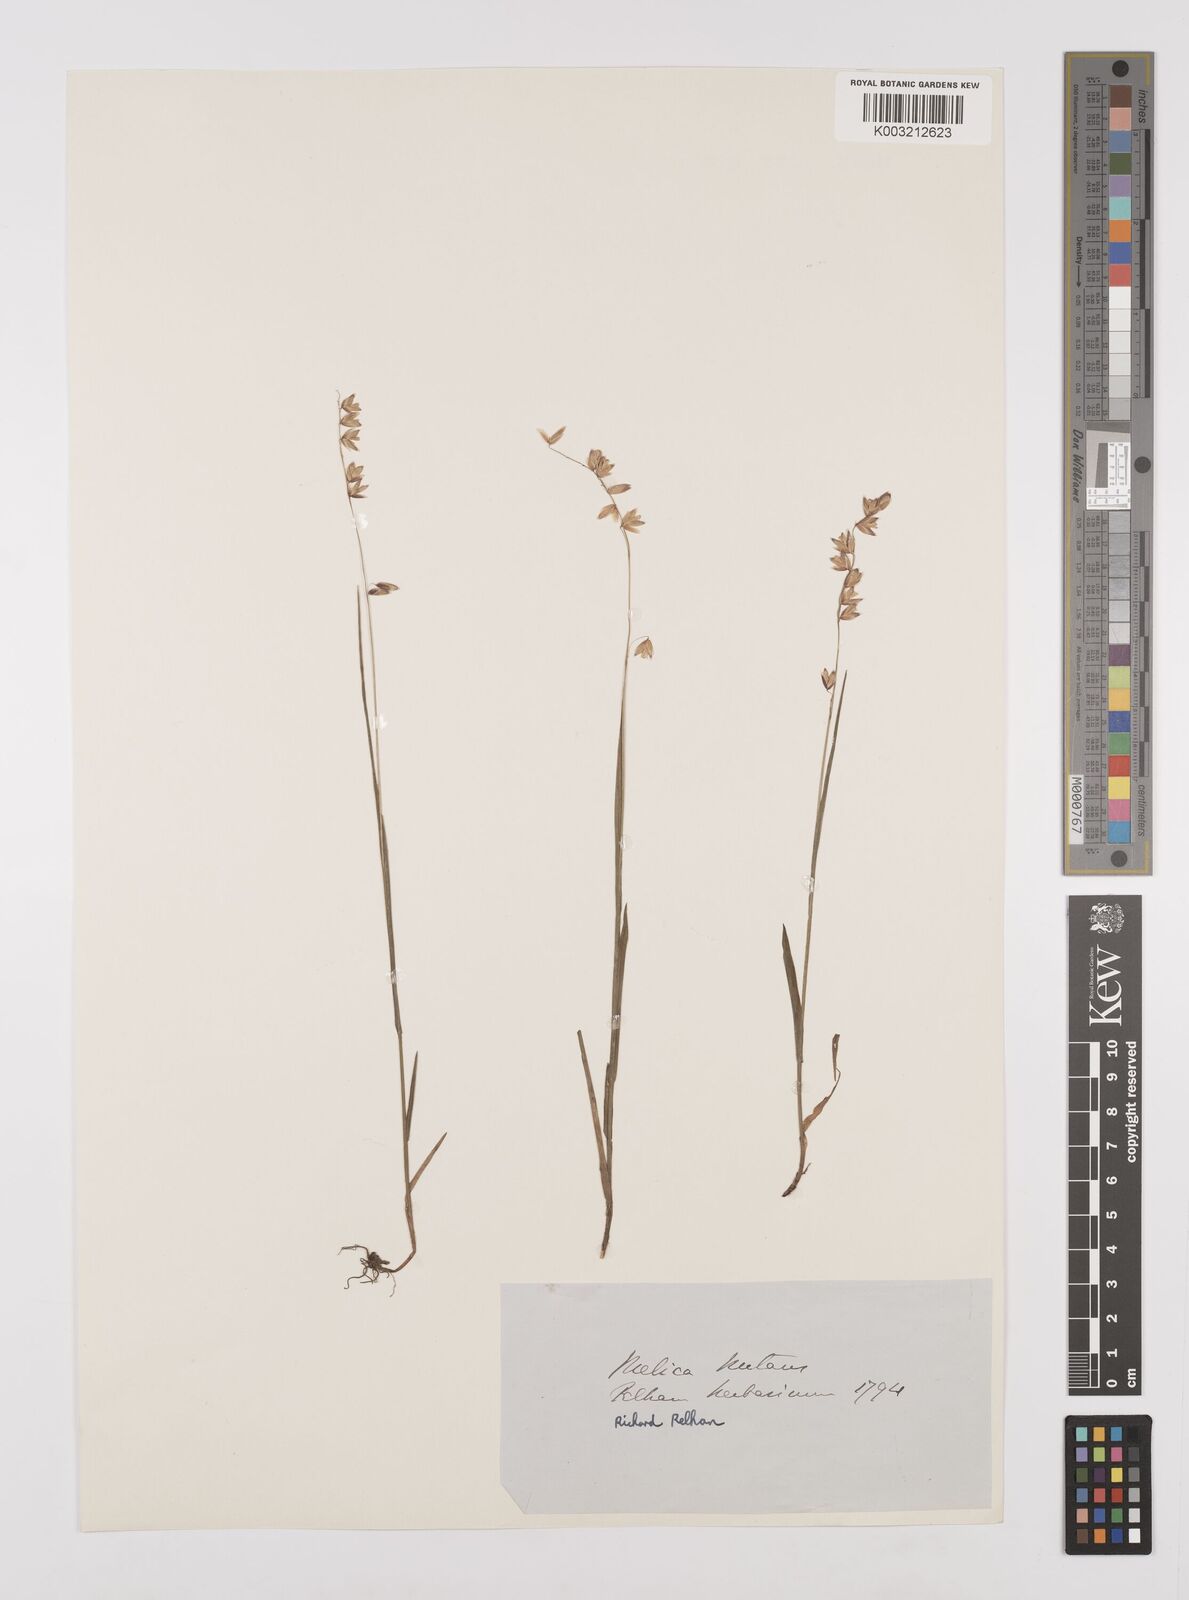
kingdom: Plantae
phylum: Tracheophyta
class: Liliopsida
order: Poales
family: Poaceae
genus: Melica
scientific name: Melica
